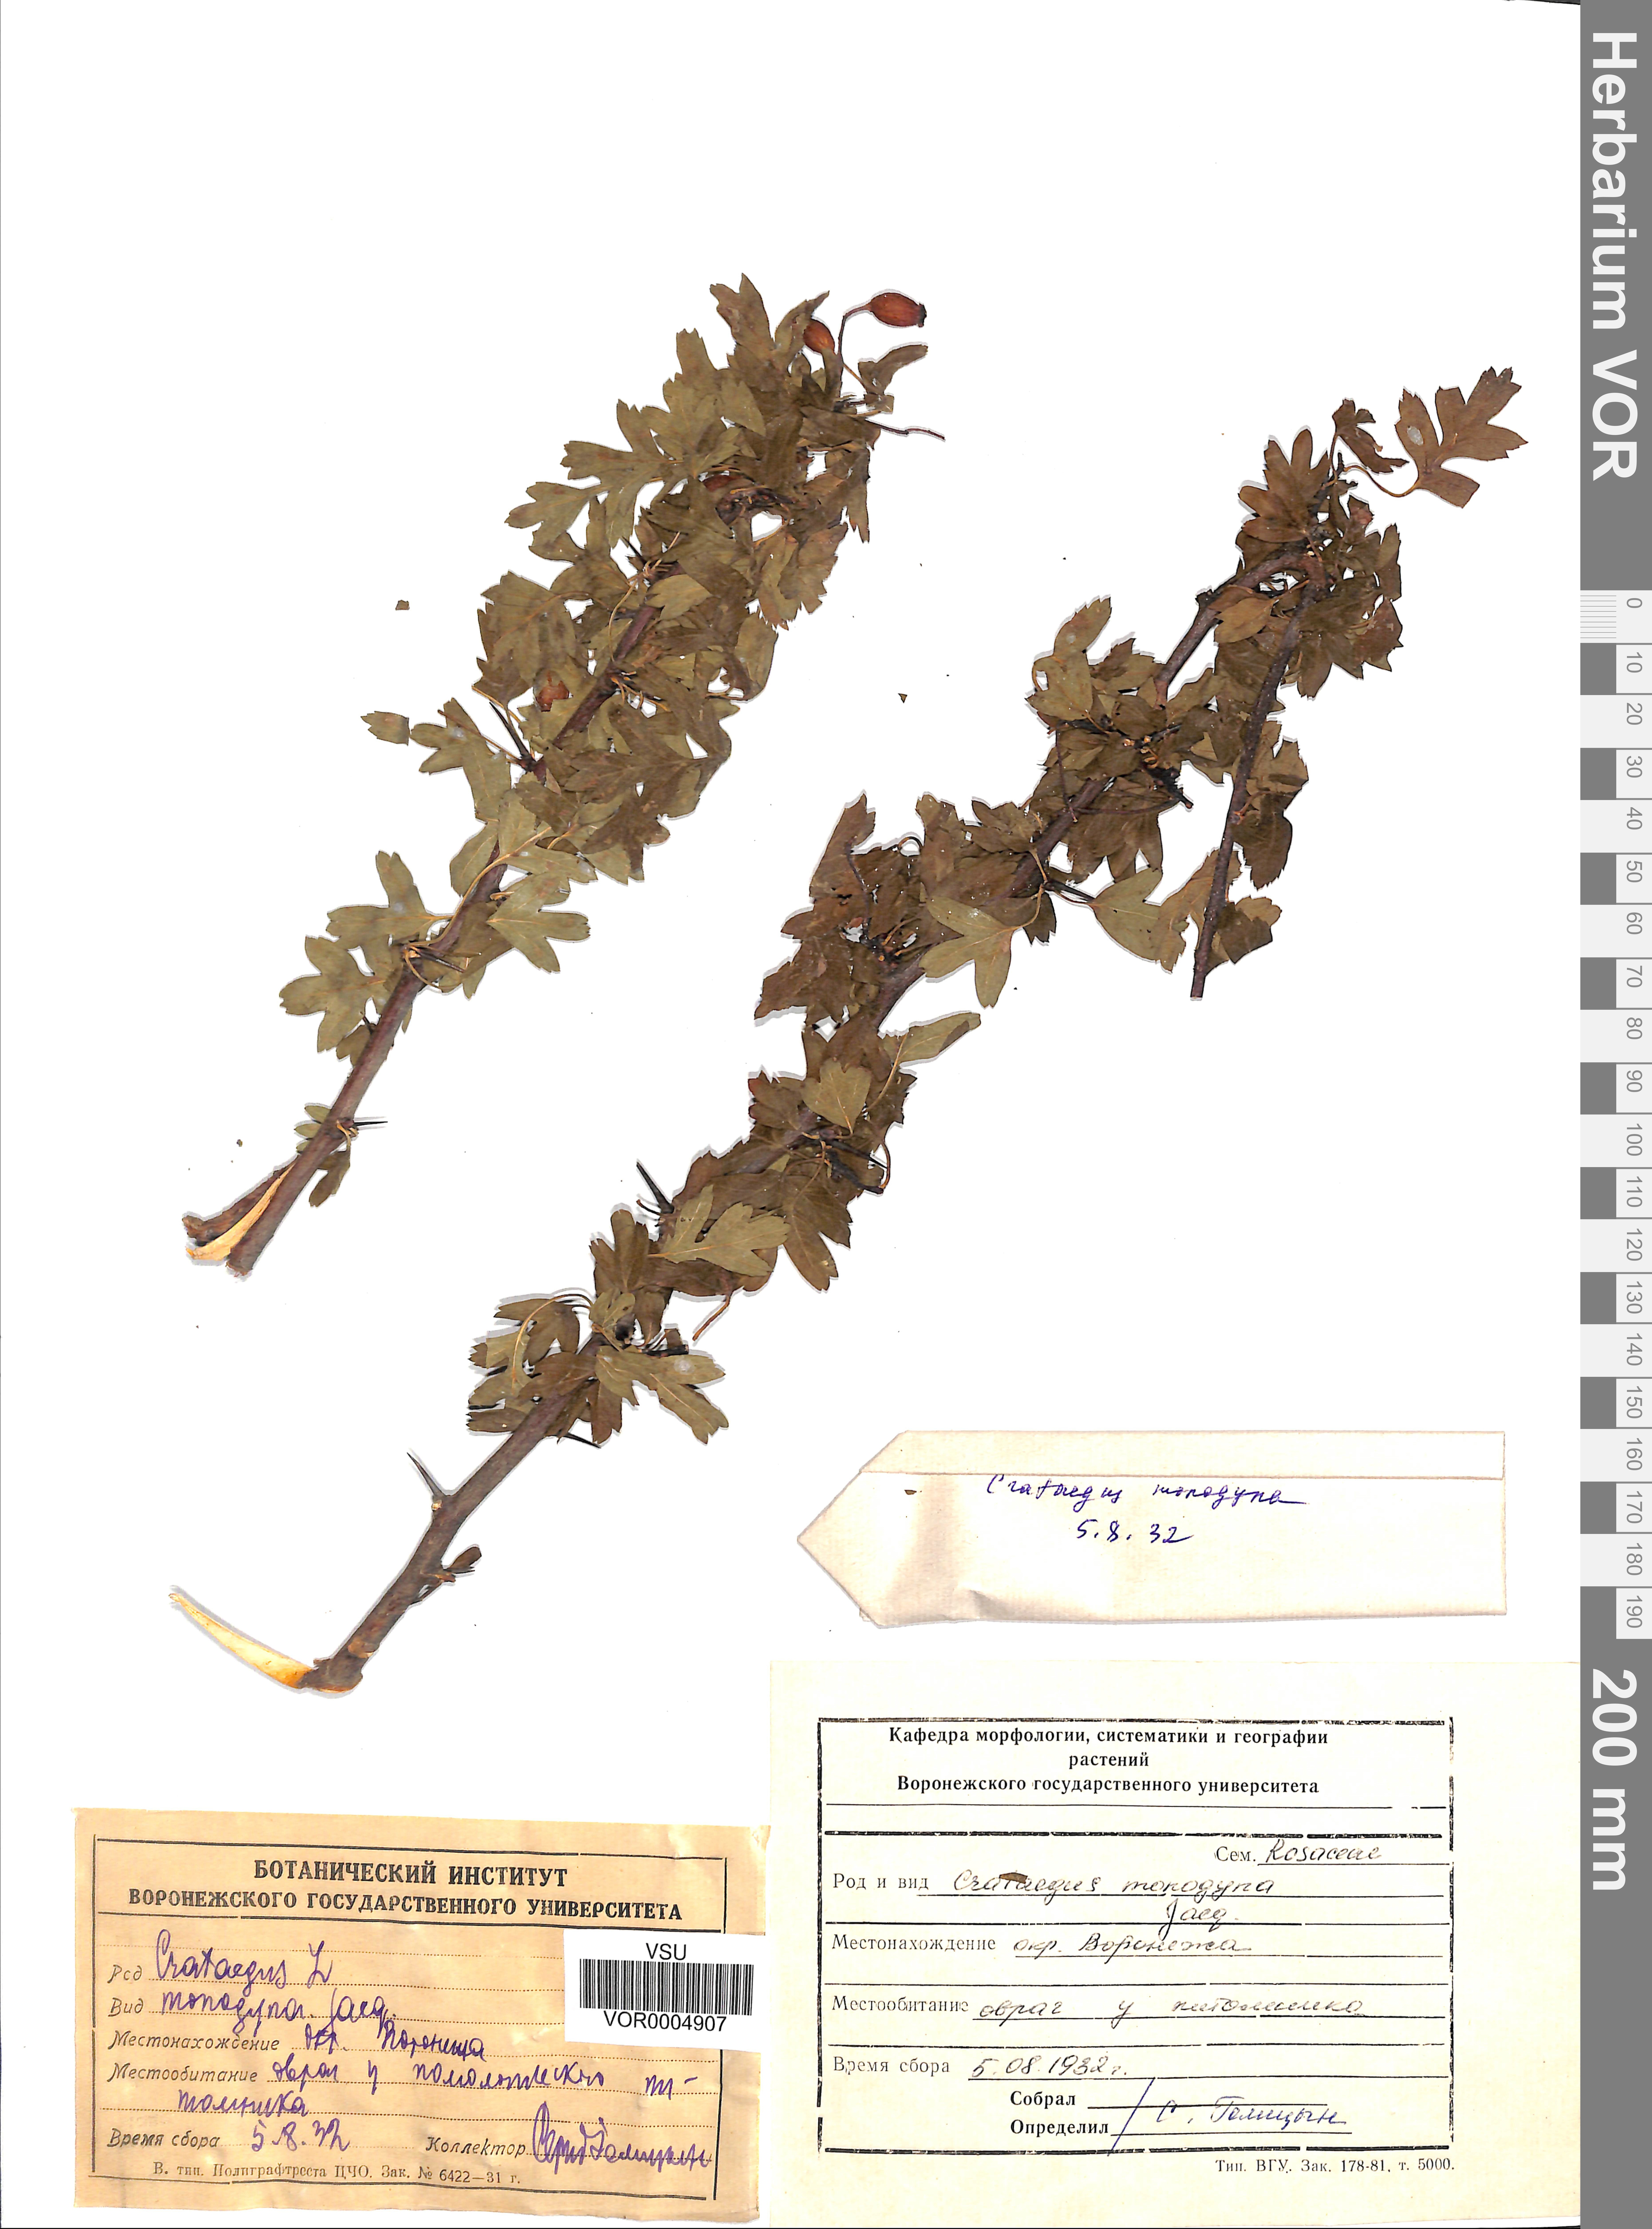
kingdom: Plantae
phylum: Tracheophyta
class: Magnoliopsida
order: Rosales
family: Rosaceae
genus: Crataegus
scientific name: Crataegus monogyna
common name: Hawthorn
